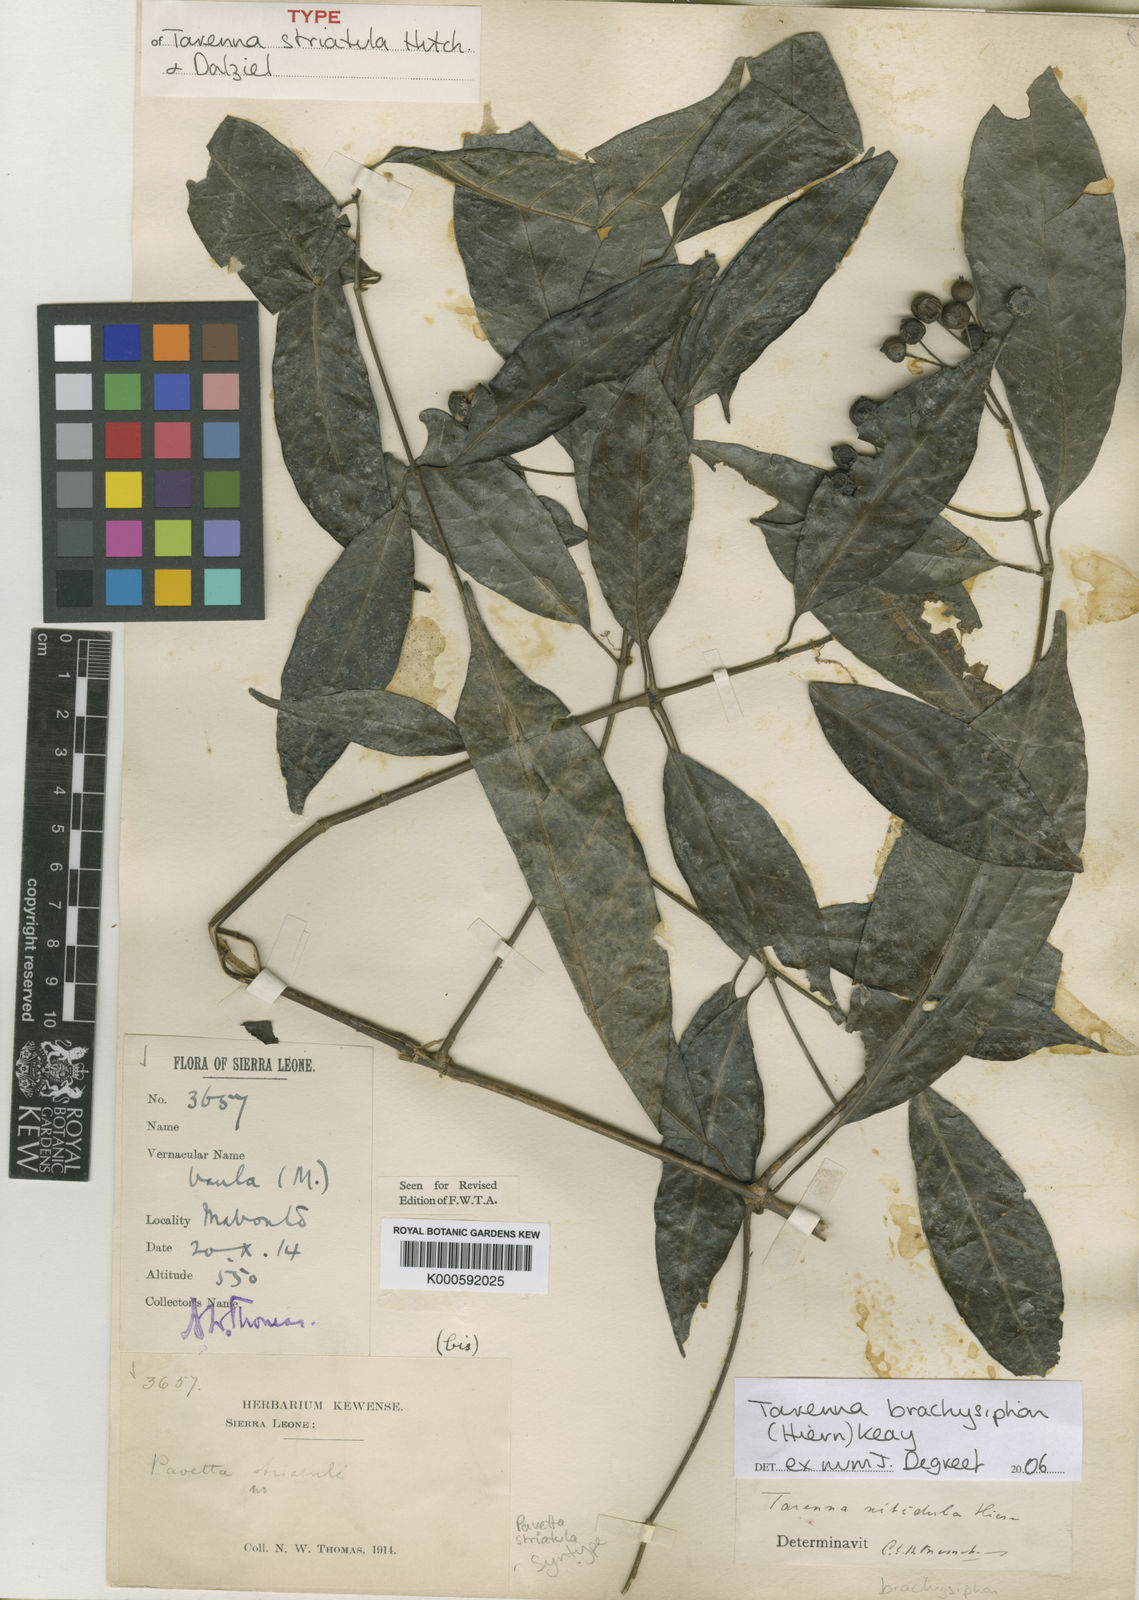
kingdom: Plantae
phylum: Tracheophyta
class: Magnoliopsida
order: Gentianales
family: Rubiaceae
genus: Tarenna
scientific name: Tarenna brachysiphon
